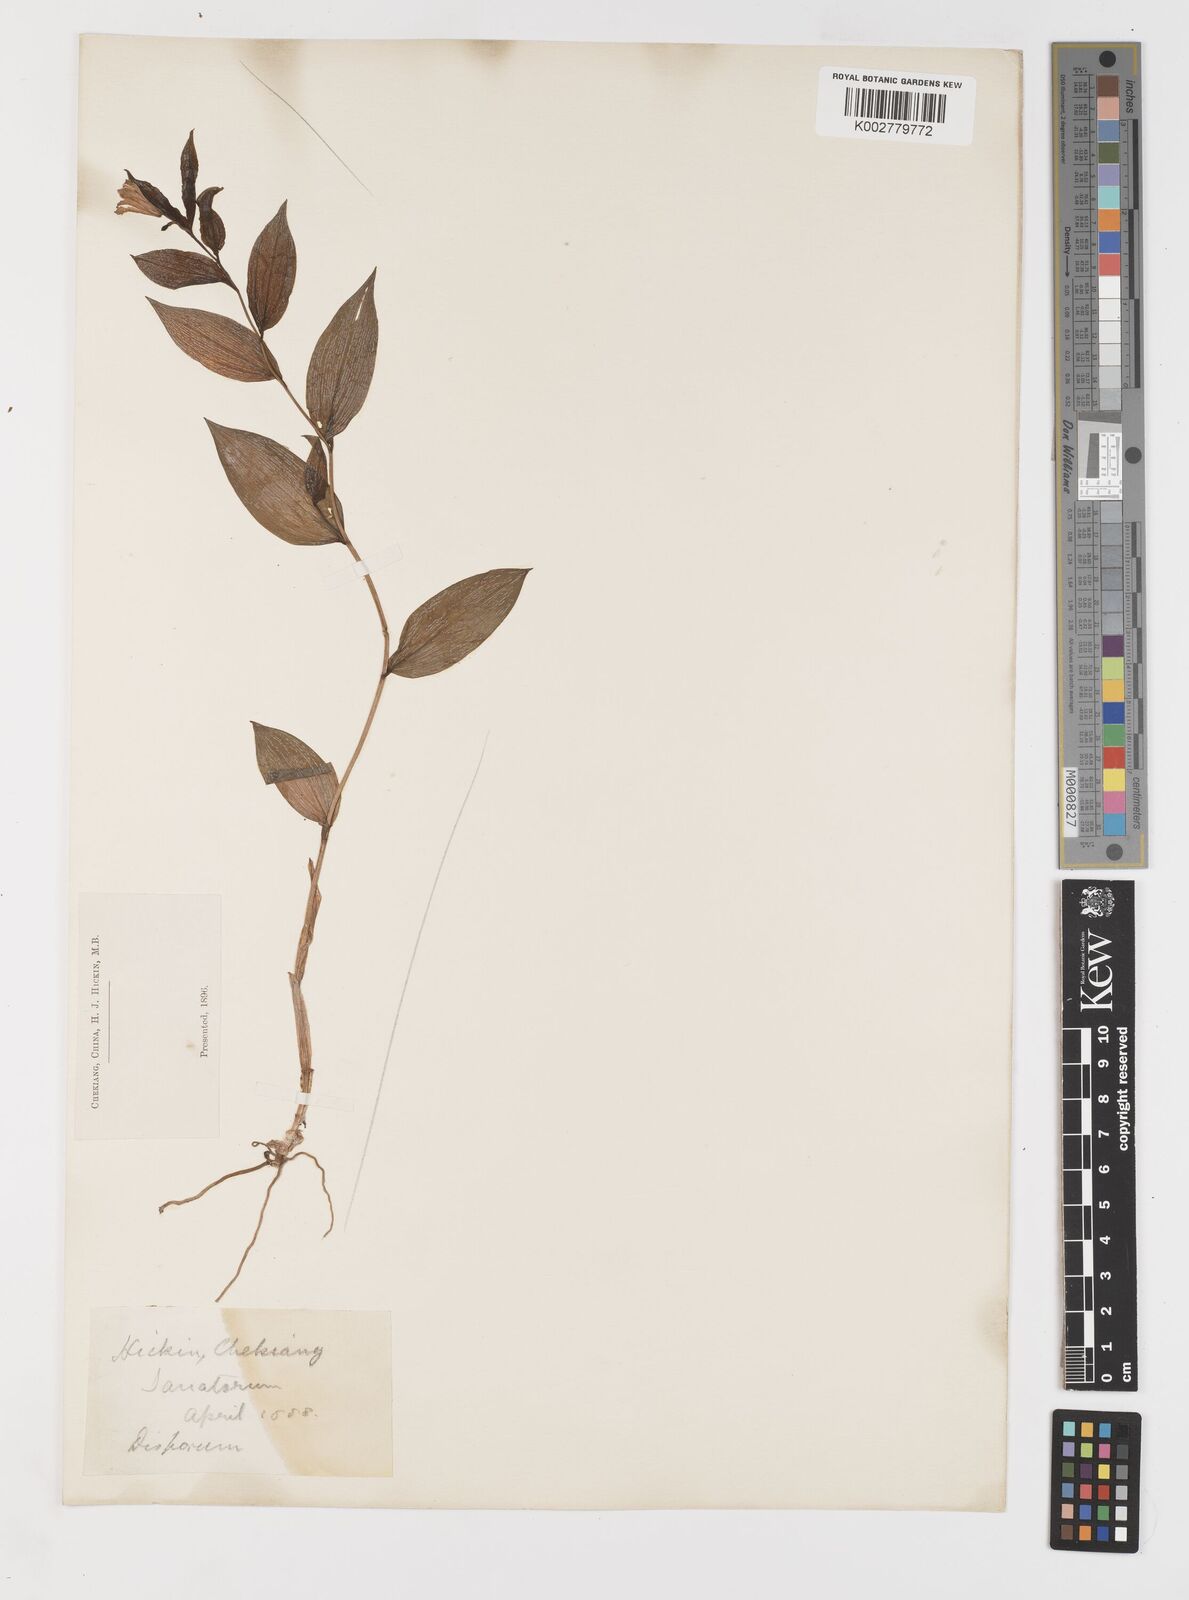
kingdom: Plantae
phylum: Tracheophyta
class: Liliopsida
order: Liliales
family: Colchicaceae
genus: Disporum
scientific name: Disporum sessile
